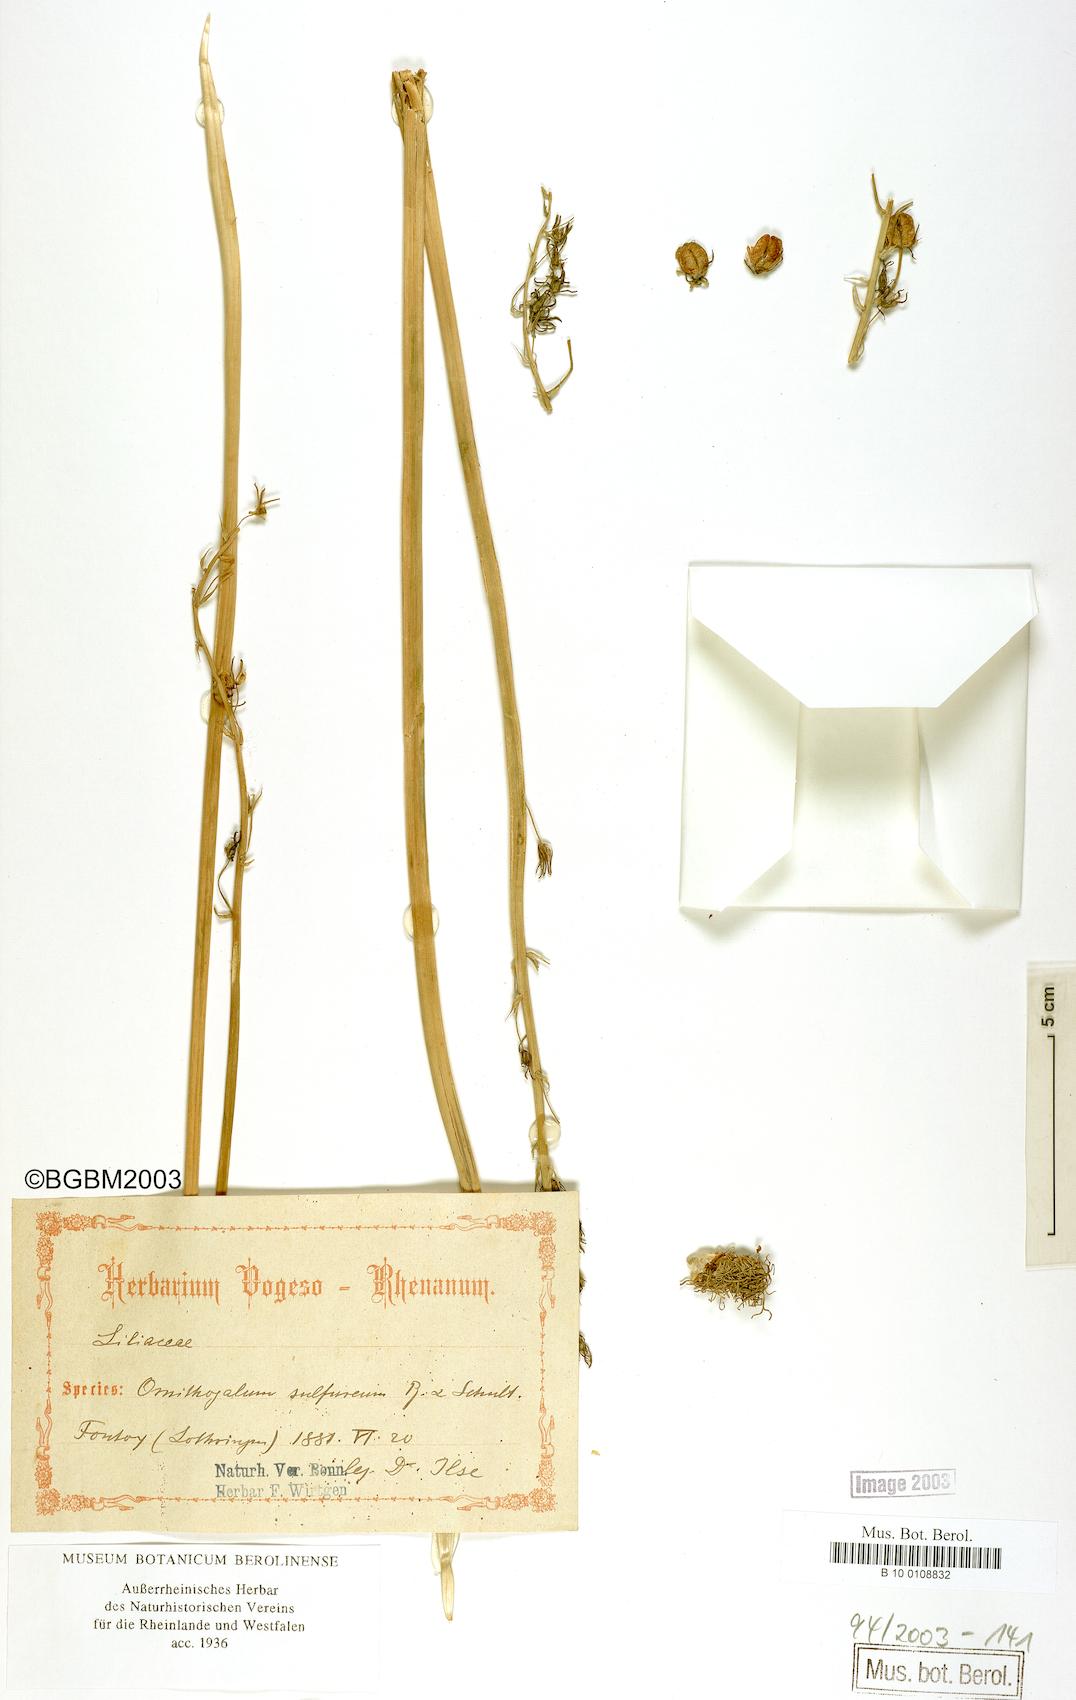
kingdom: Plantae
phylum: Tracheophyta
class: Liliopsida
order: Asparagales
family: Asparagaceae
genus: Ornithogalum
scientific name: Ornithogalum pyrenaicum
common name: Spiked star-of-bethlehem
